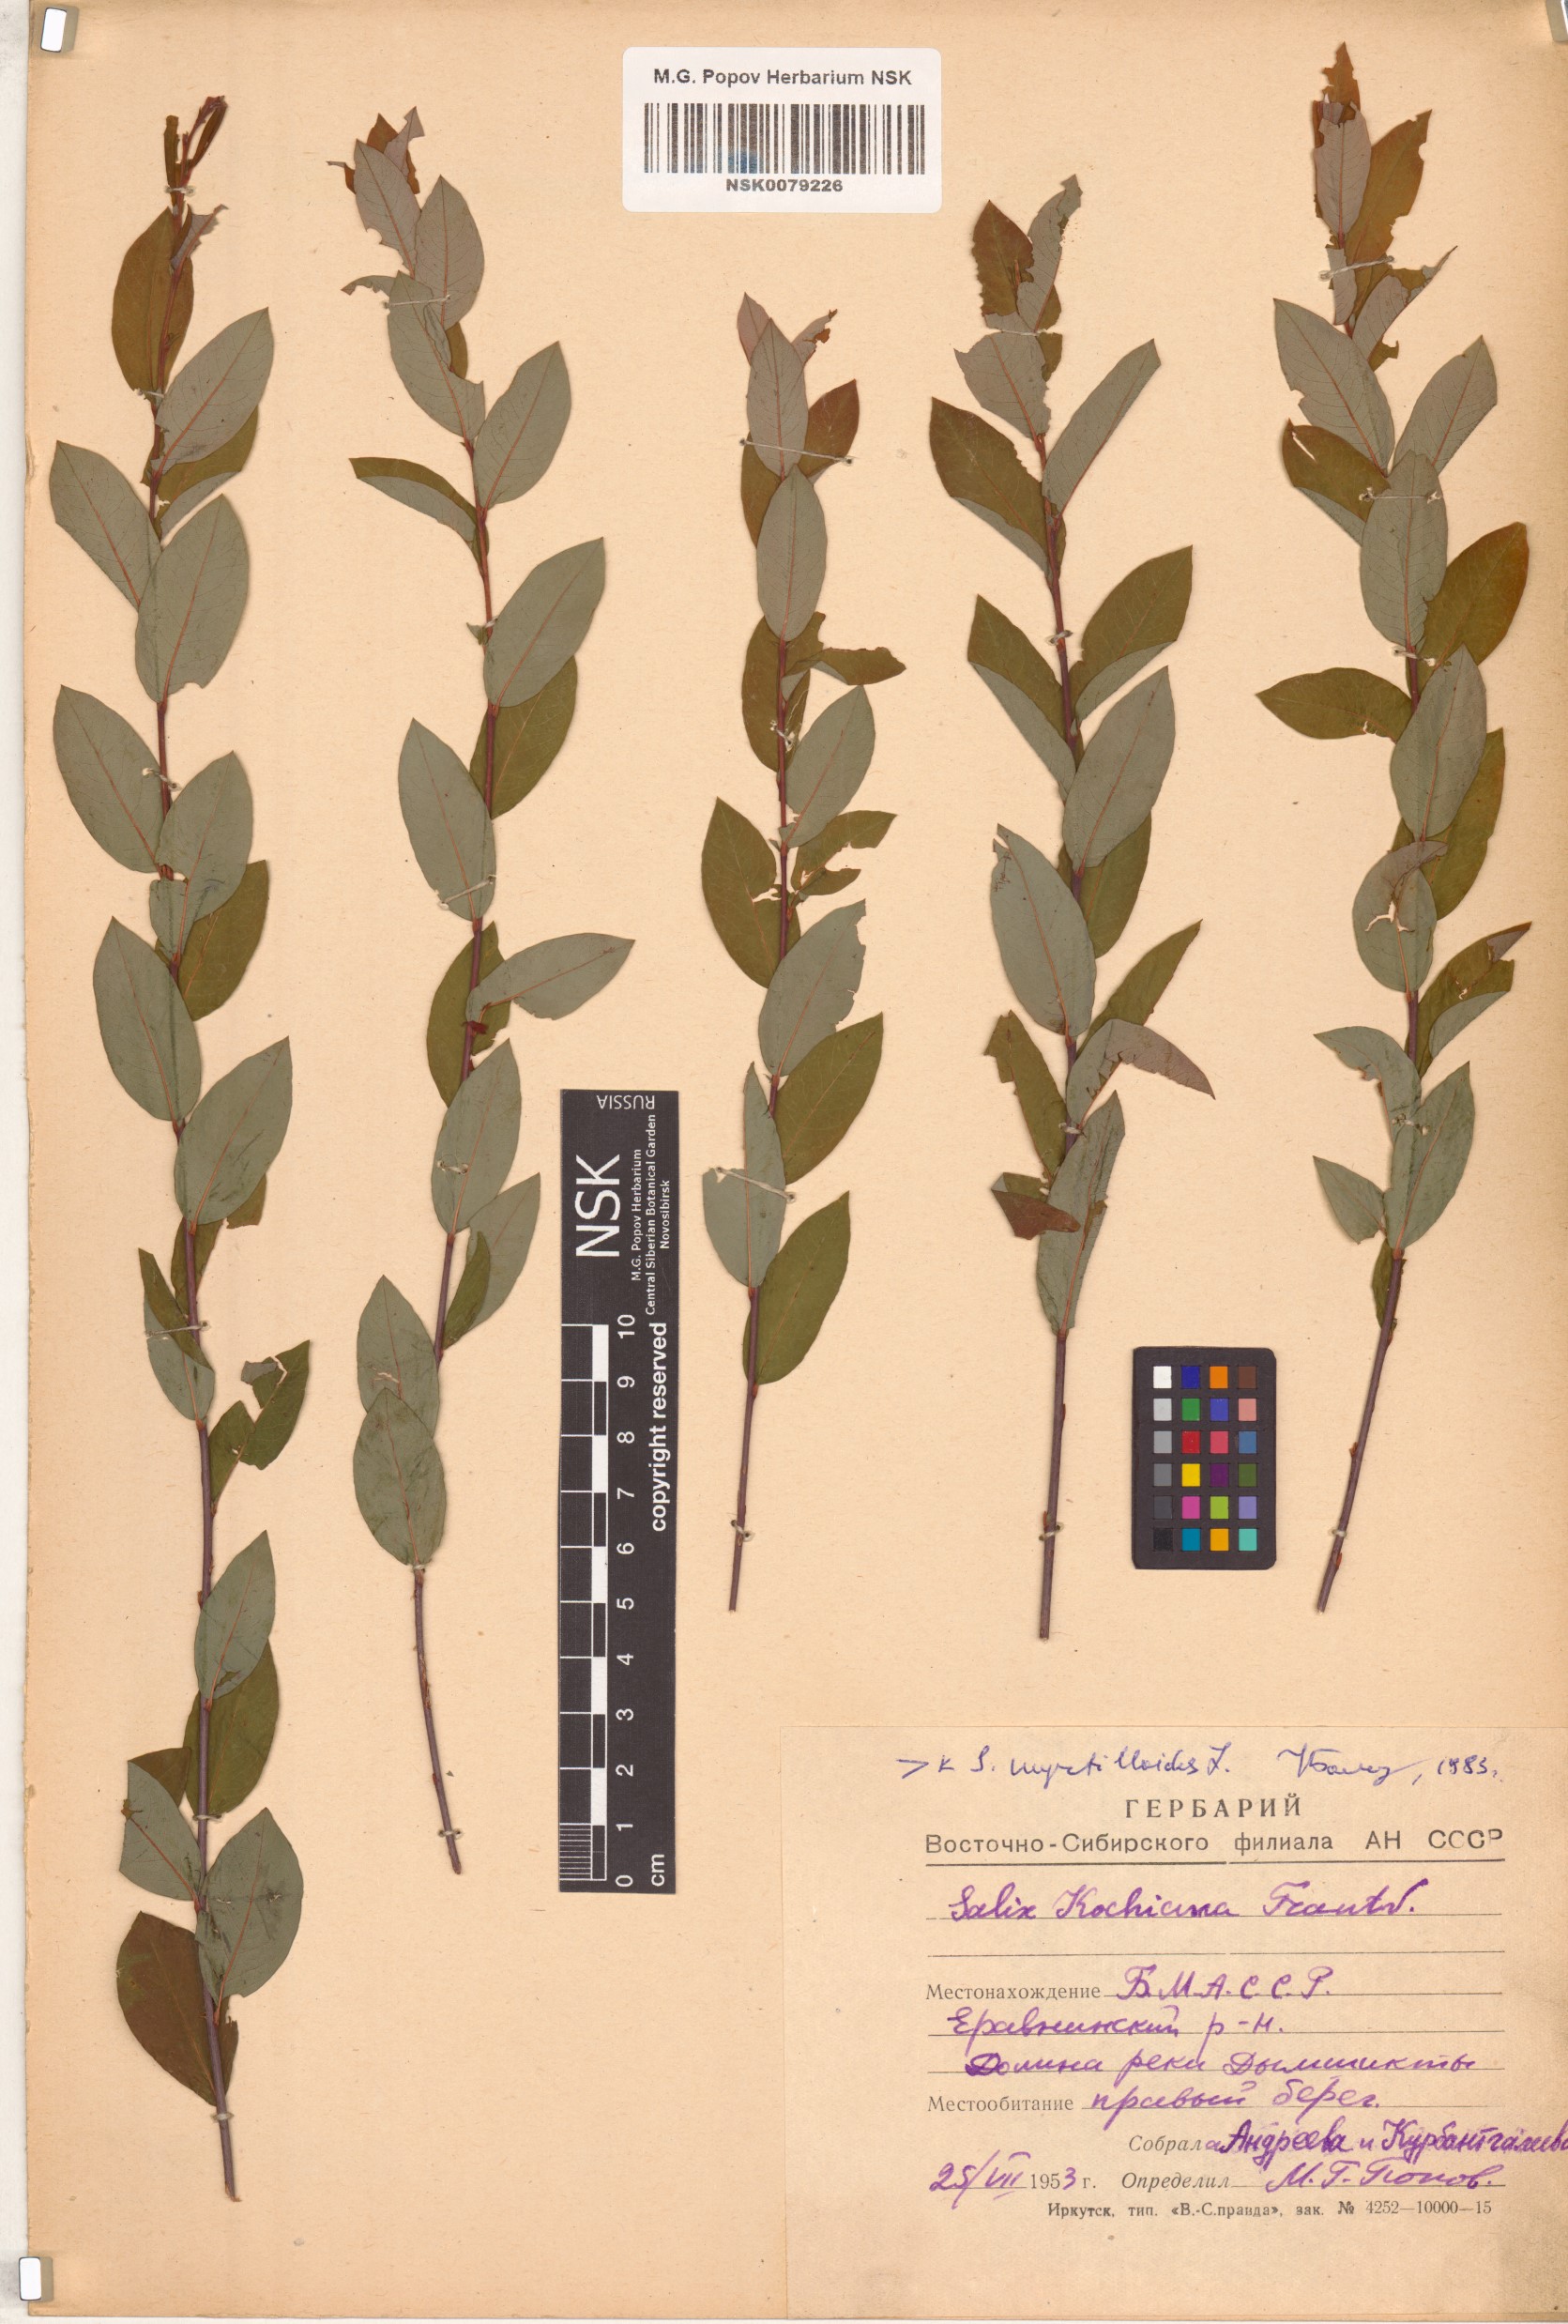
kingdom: Plantae
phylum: Tracheophyta
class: Magnoliopsida
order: Malpighiales
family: Salicaceae
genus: Salix
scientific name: Salix myrtilloides
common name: Myrtle-leaved willow
